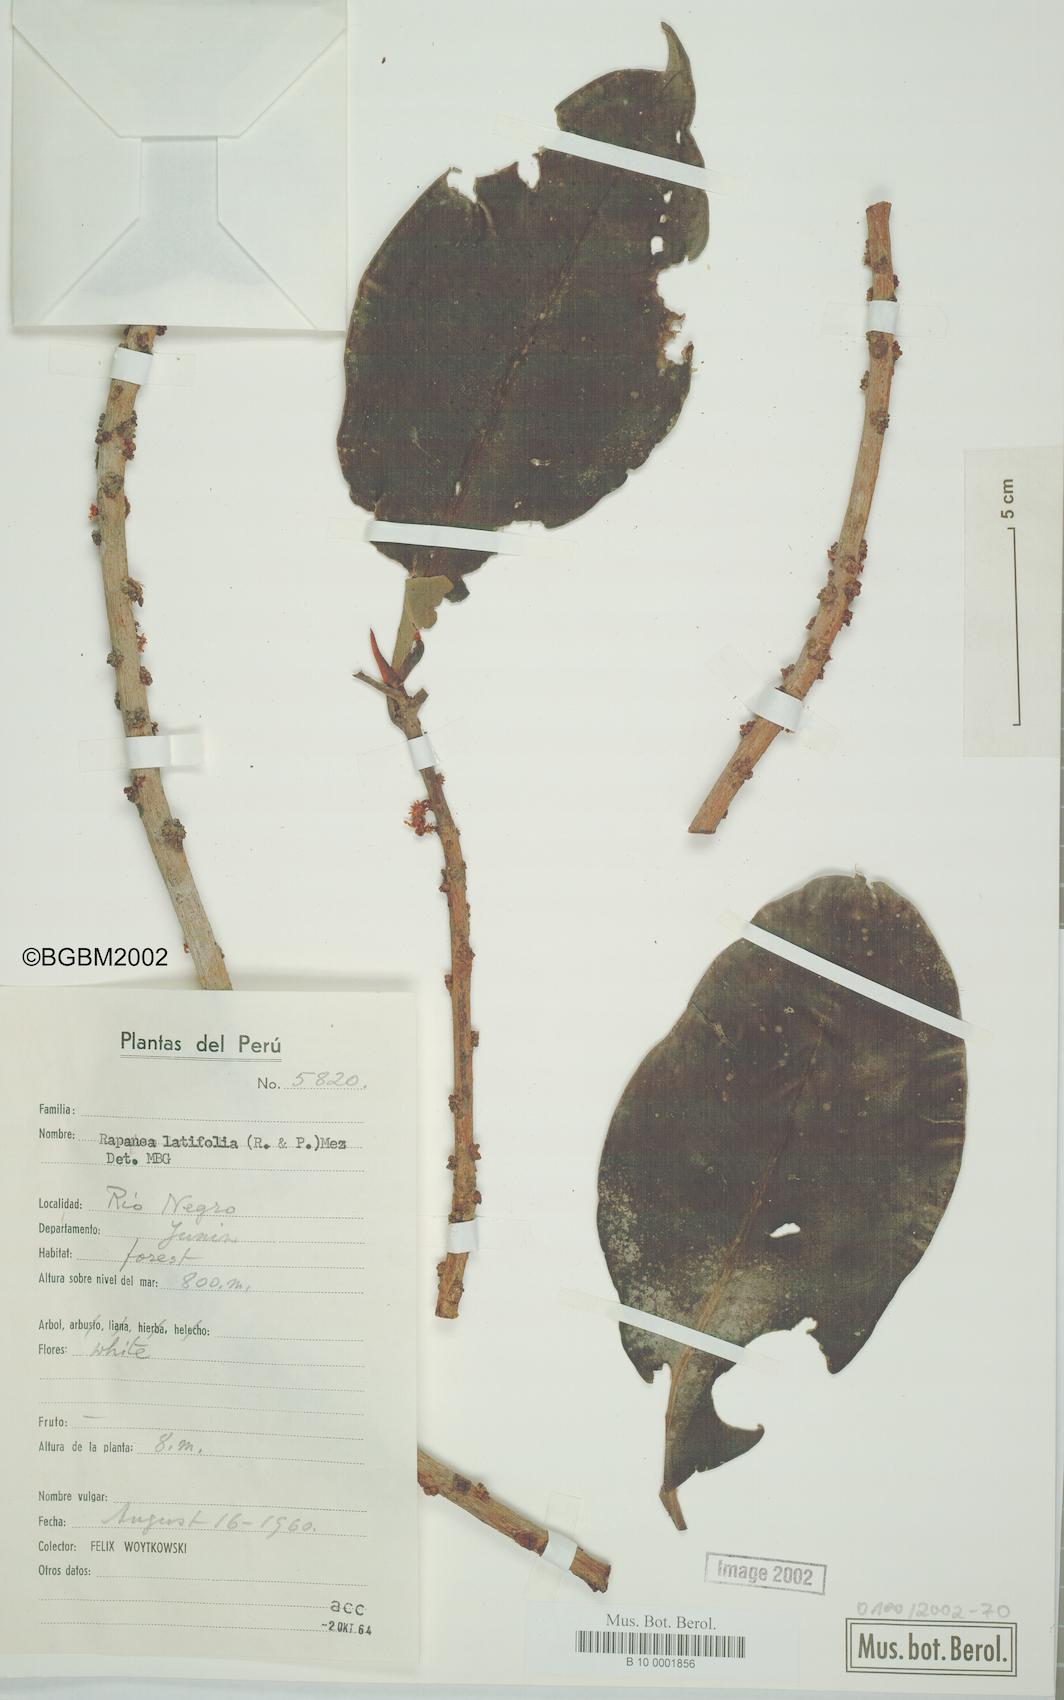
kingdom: Plantae
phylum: Tracheophyta
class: Magnoliopsida
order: Ericales
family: Primulaceae
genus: Myrsine
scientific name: Myrsine latifolia
